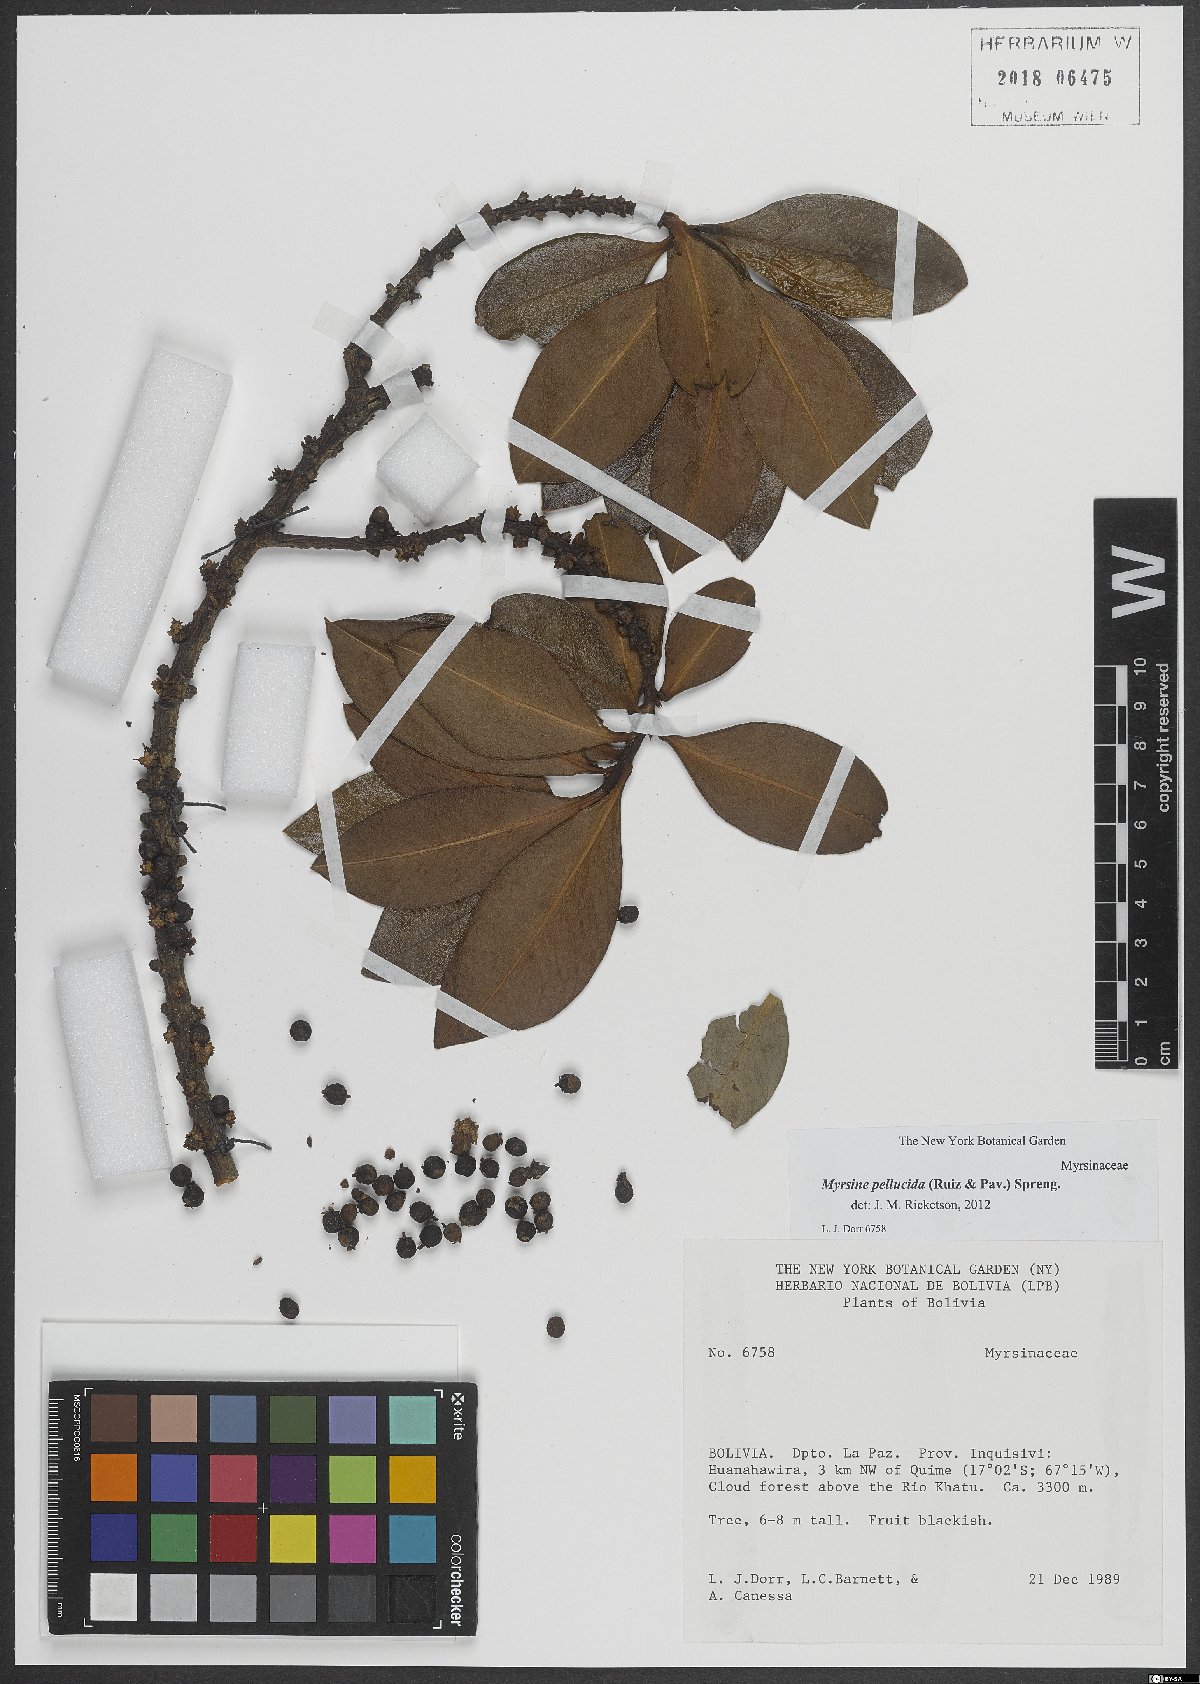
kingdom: Plantae
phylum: Tracheophyta
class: Magnoliopsida
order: Ericales
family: Primulaceae
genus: Myrsine
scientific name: Myrsine pellucida
